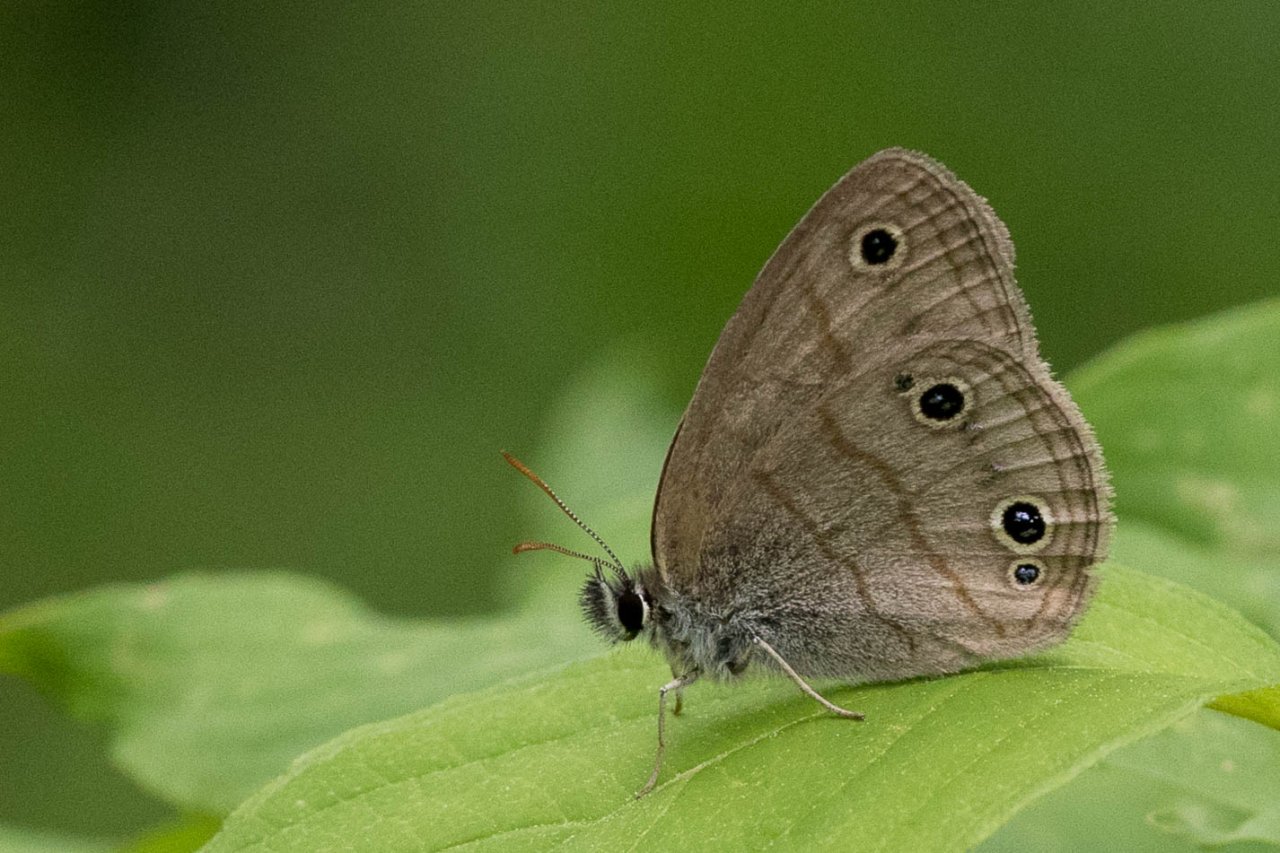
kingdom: Animalia
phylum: Arthropoda
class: Insecta
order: Lepidoptera
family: Nymphalidae
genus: Euptychia
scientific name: Euptychia cymela
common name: Little Wood Satyr
